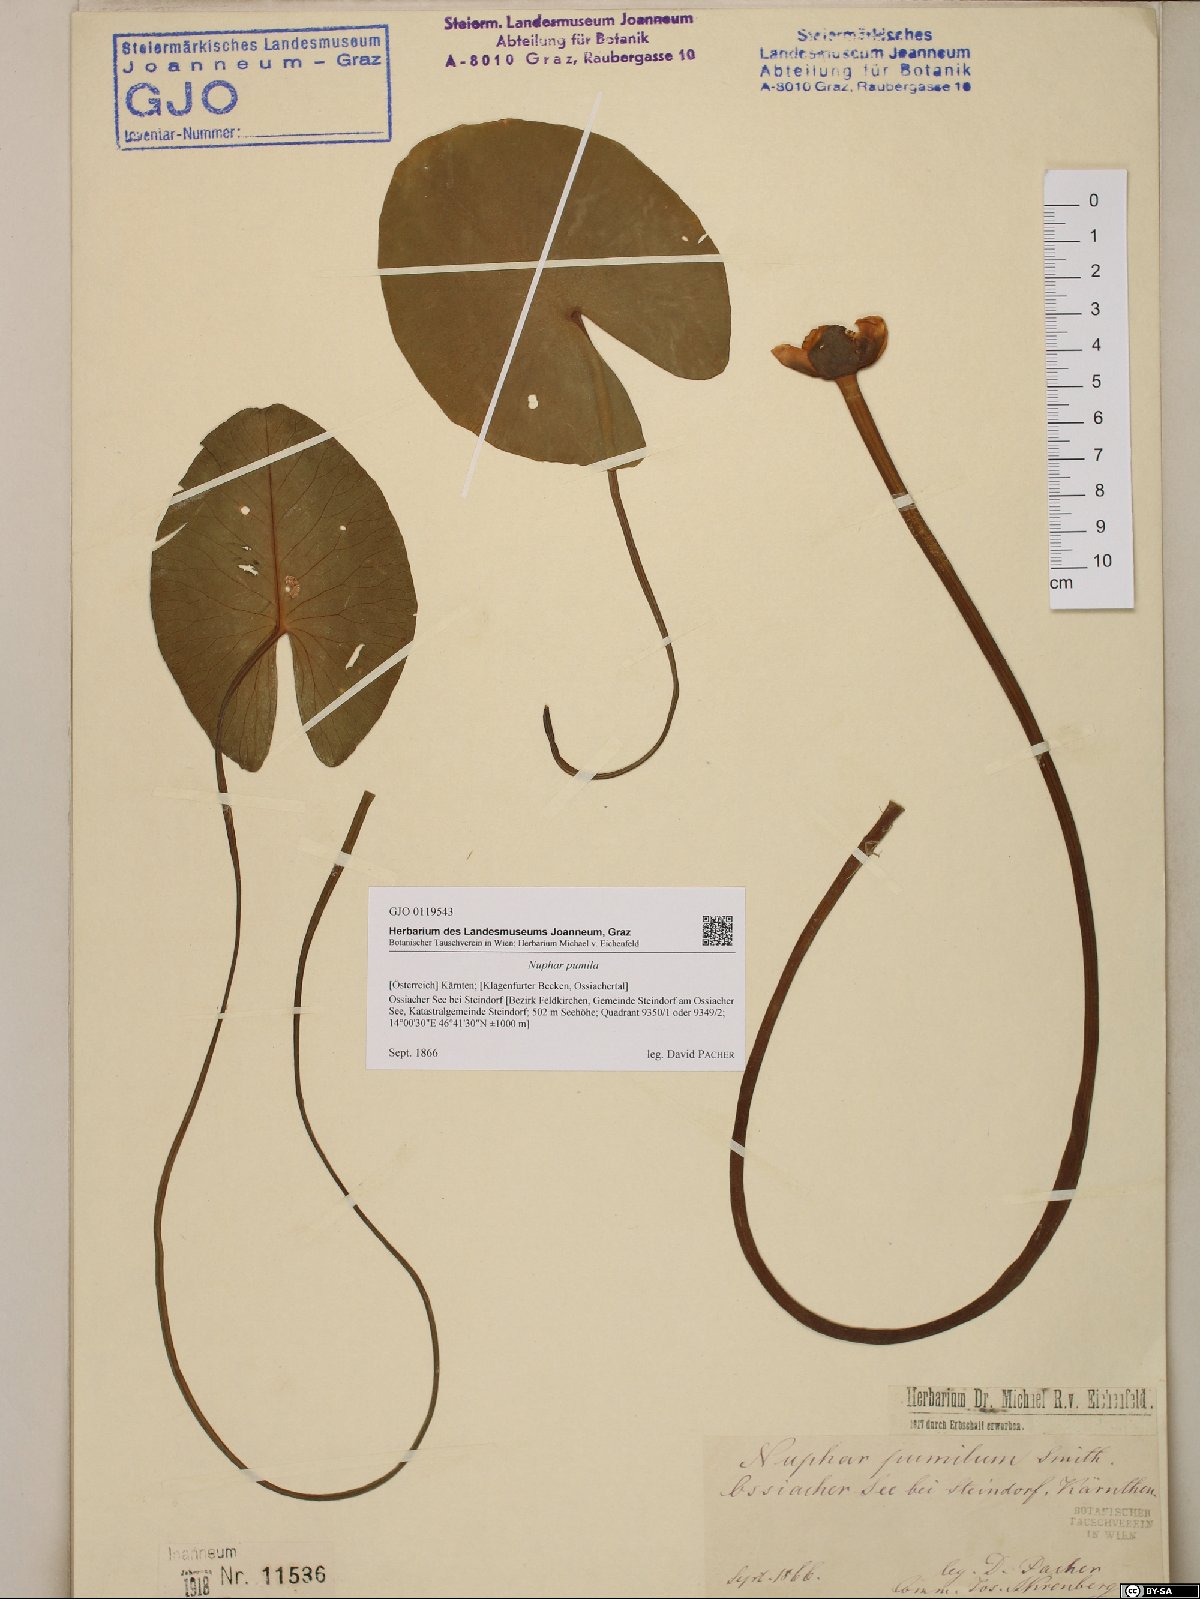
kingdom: Plantae
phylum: Tracheophyta
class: Magnoliopsida
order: Nymphaeales
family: Nymphaeaceae
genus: Nuphar
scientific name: Nuphar pumila
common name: Least water-lily
